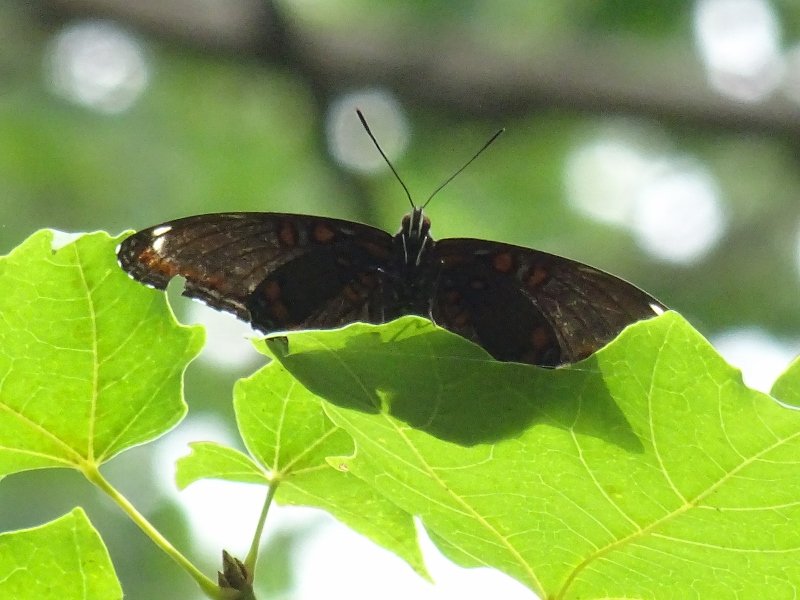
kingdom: Animalia
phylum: Arthropoda
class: Insecta
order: Lepidoptera
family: Nymphalidae
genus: Limenitis
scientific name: Limenitis astyanax
